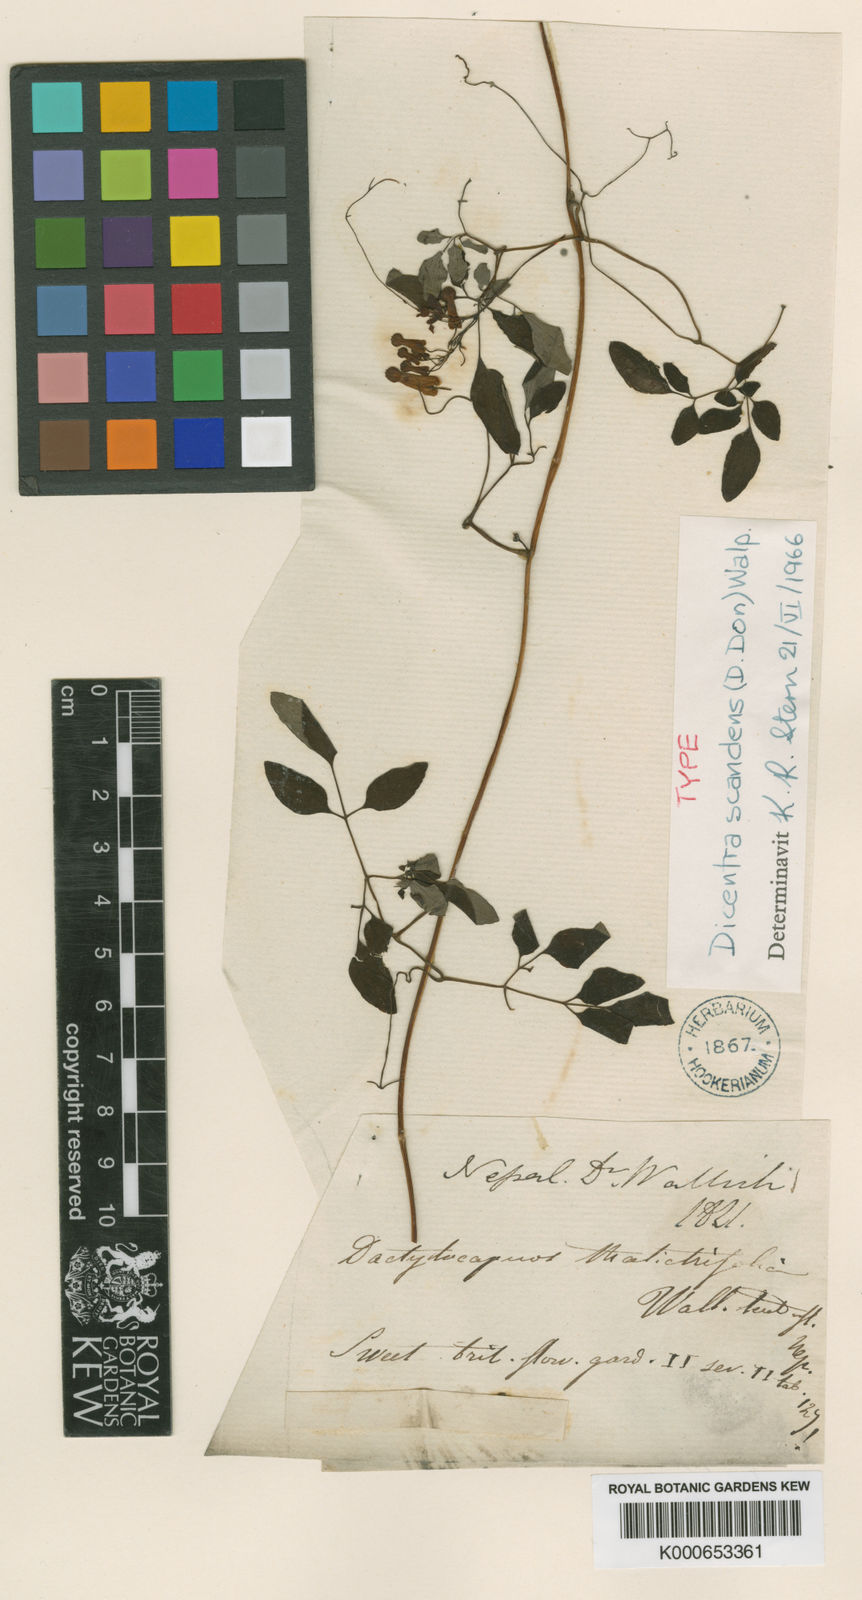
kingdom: Plantae
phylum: Tracheophyta
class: Magnoliopsida
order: Ranunculales
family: Papaveraceae
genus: Dactylicapnos
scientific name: Dactylicapnos scandens
